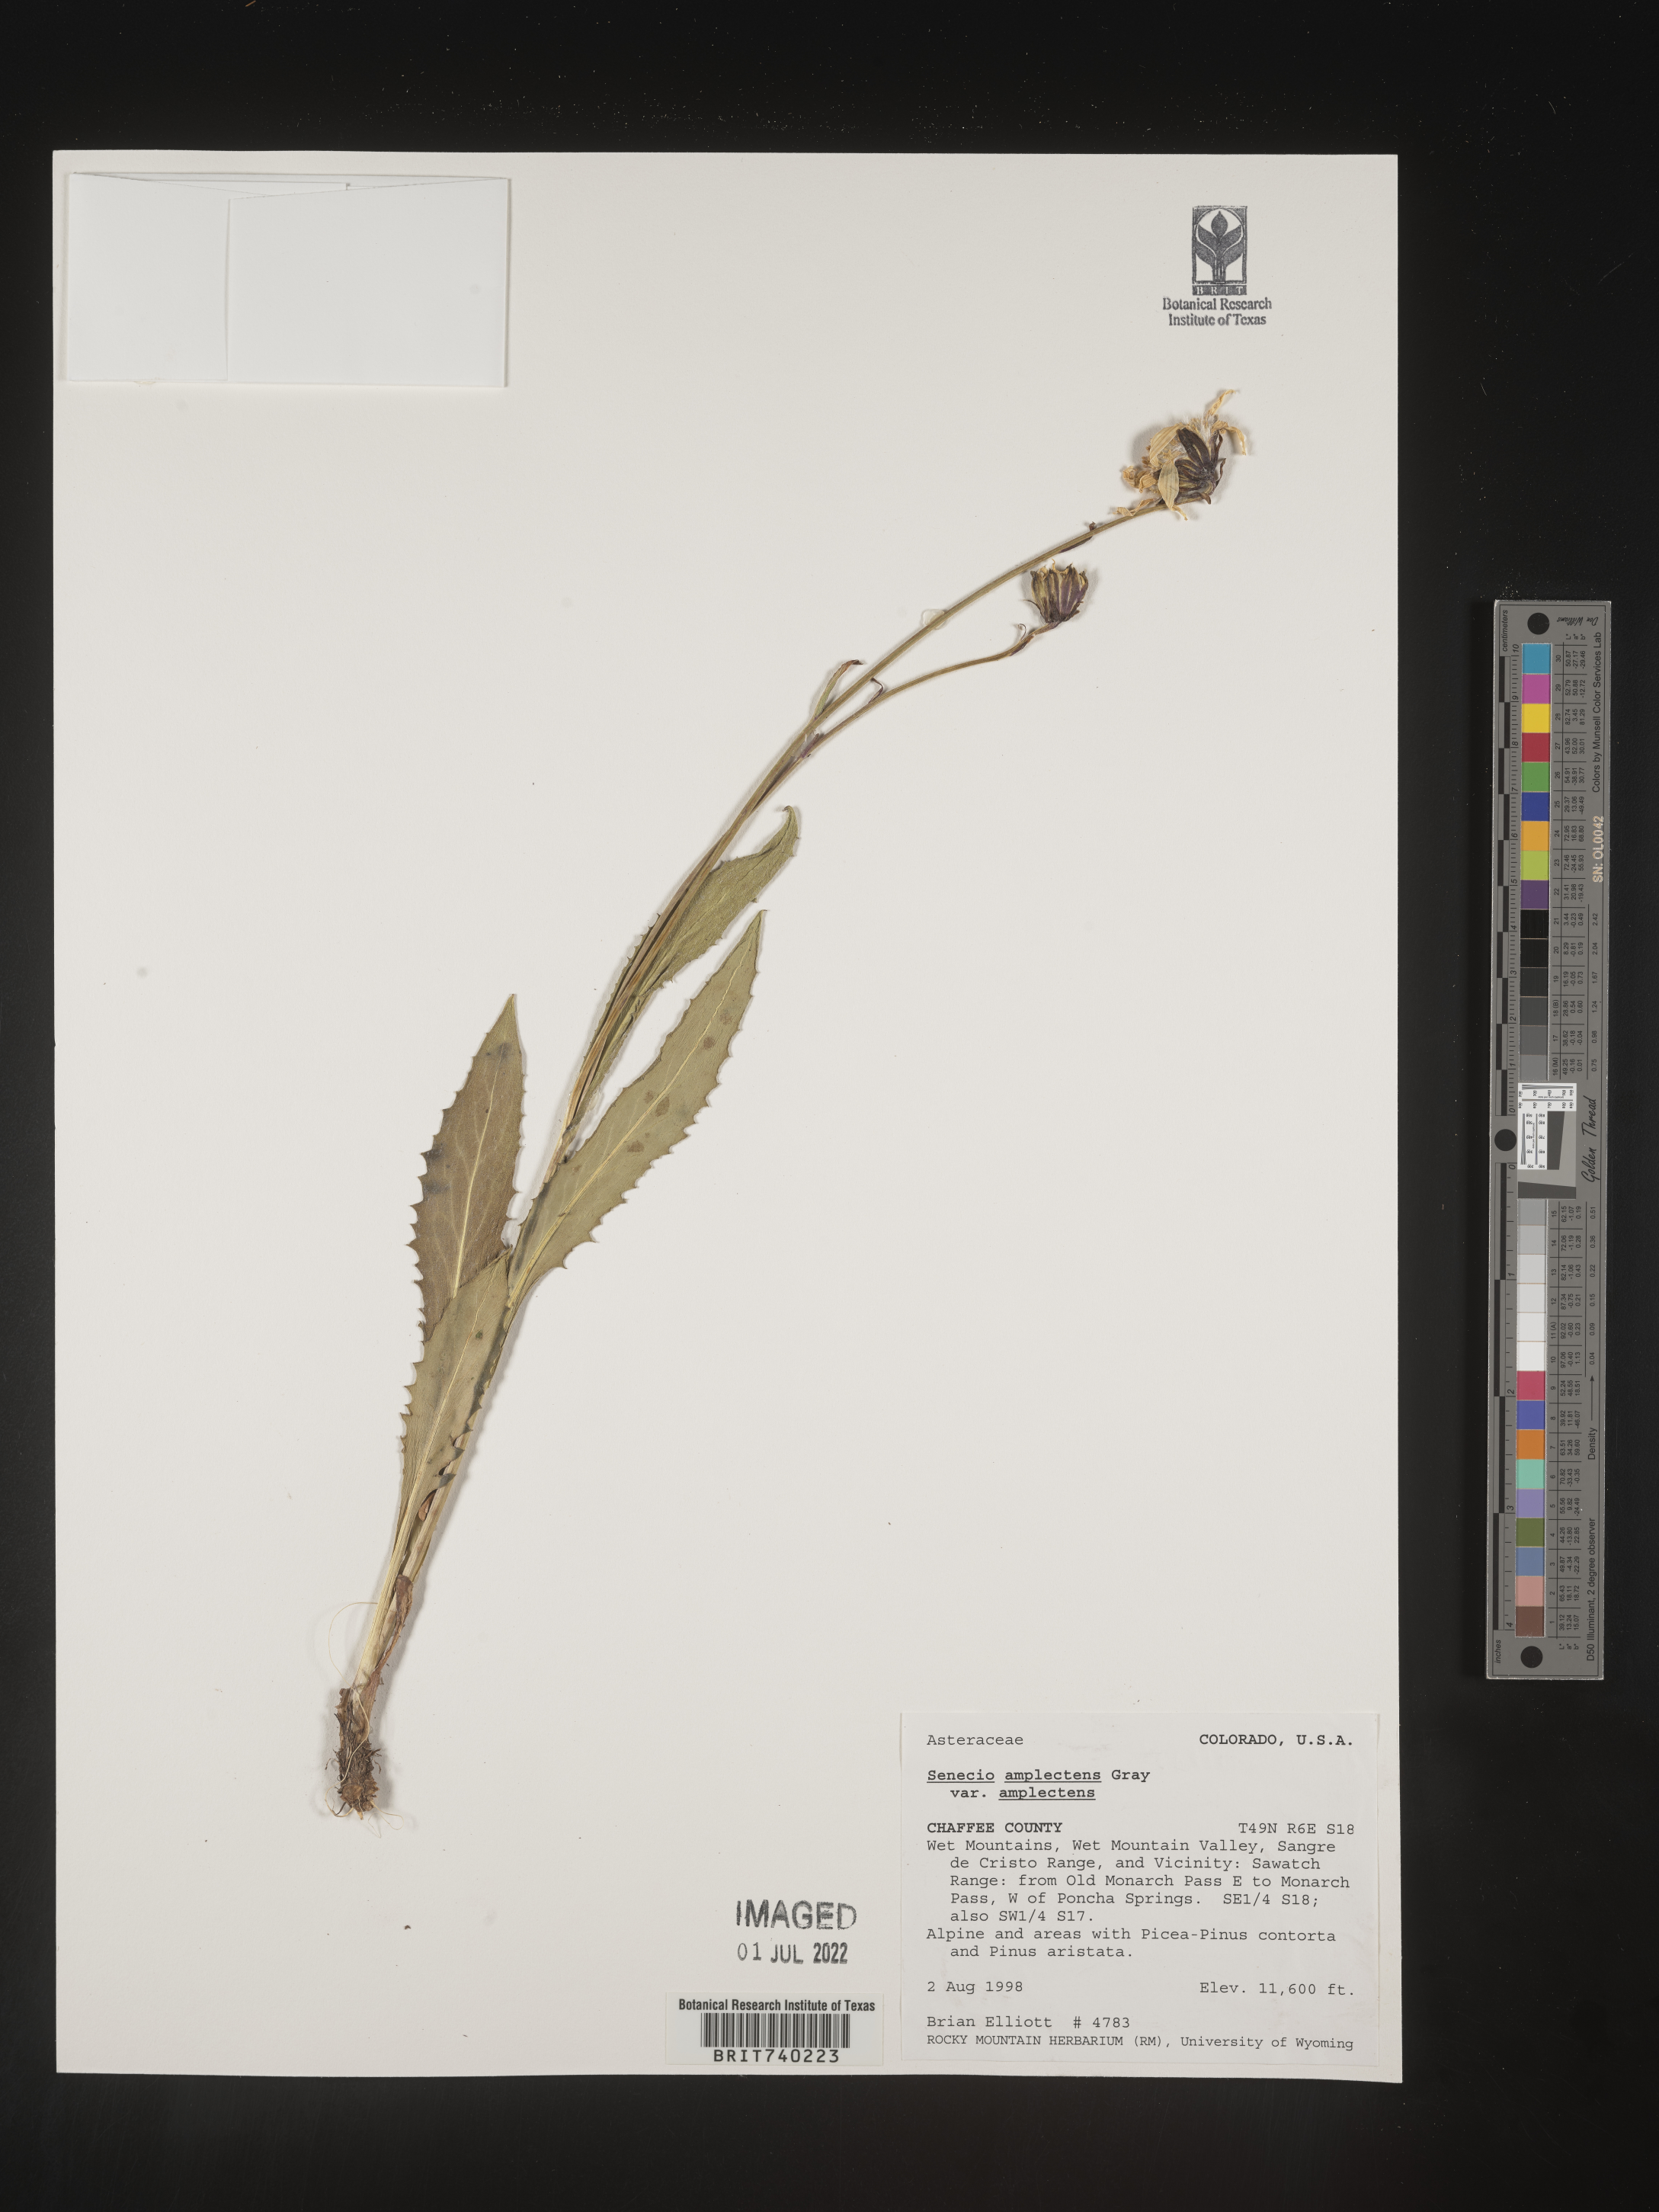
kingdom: Plantae
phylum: Tracheophyta
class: Magnoliopsida
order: Asterales
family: Asteraceae
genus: Senecio
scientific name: Senecio amplectens
